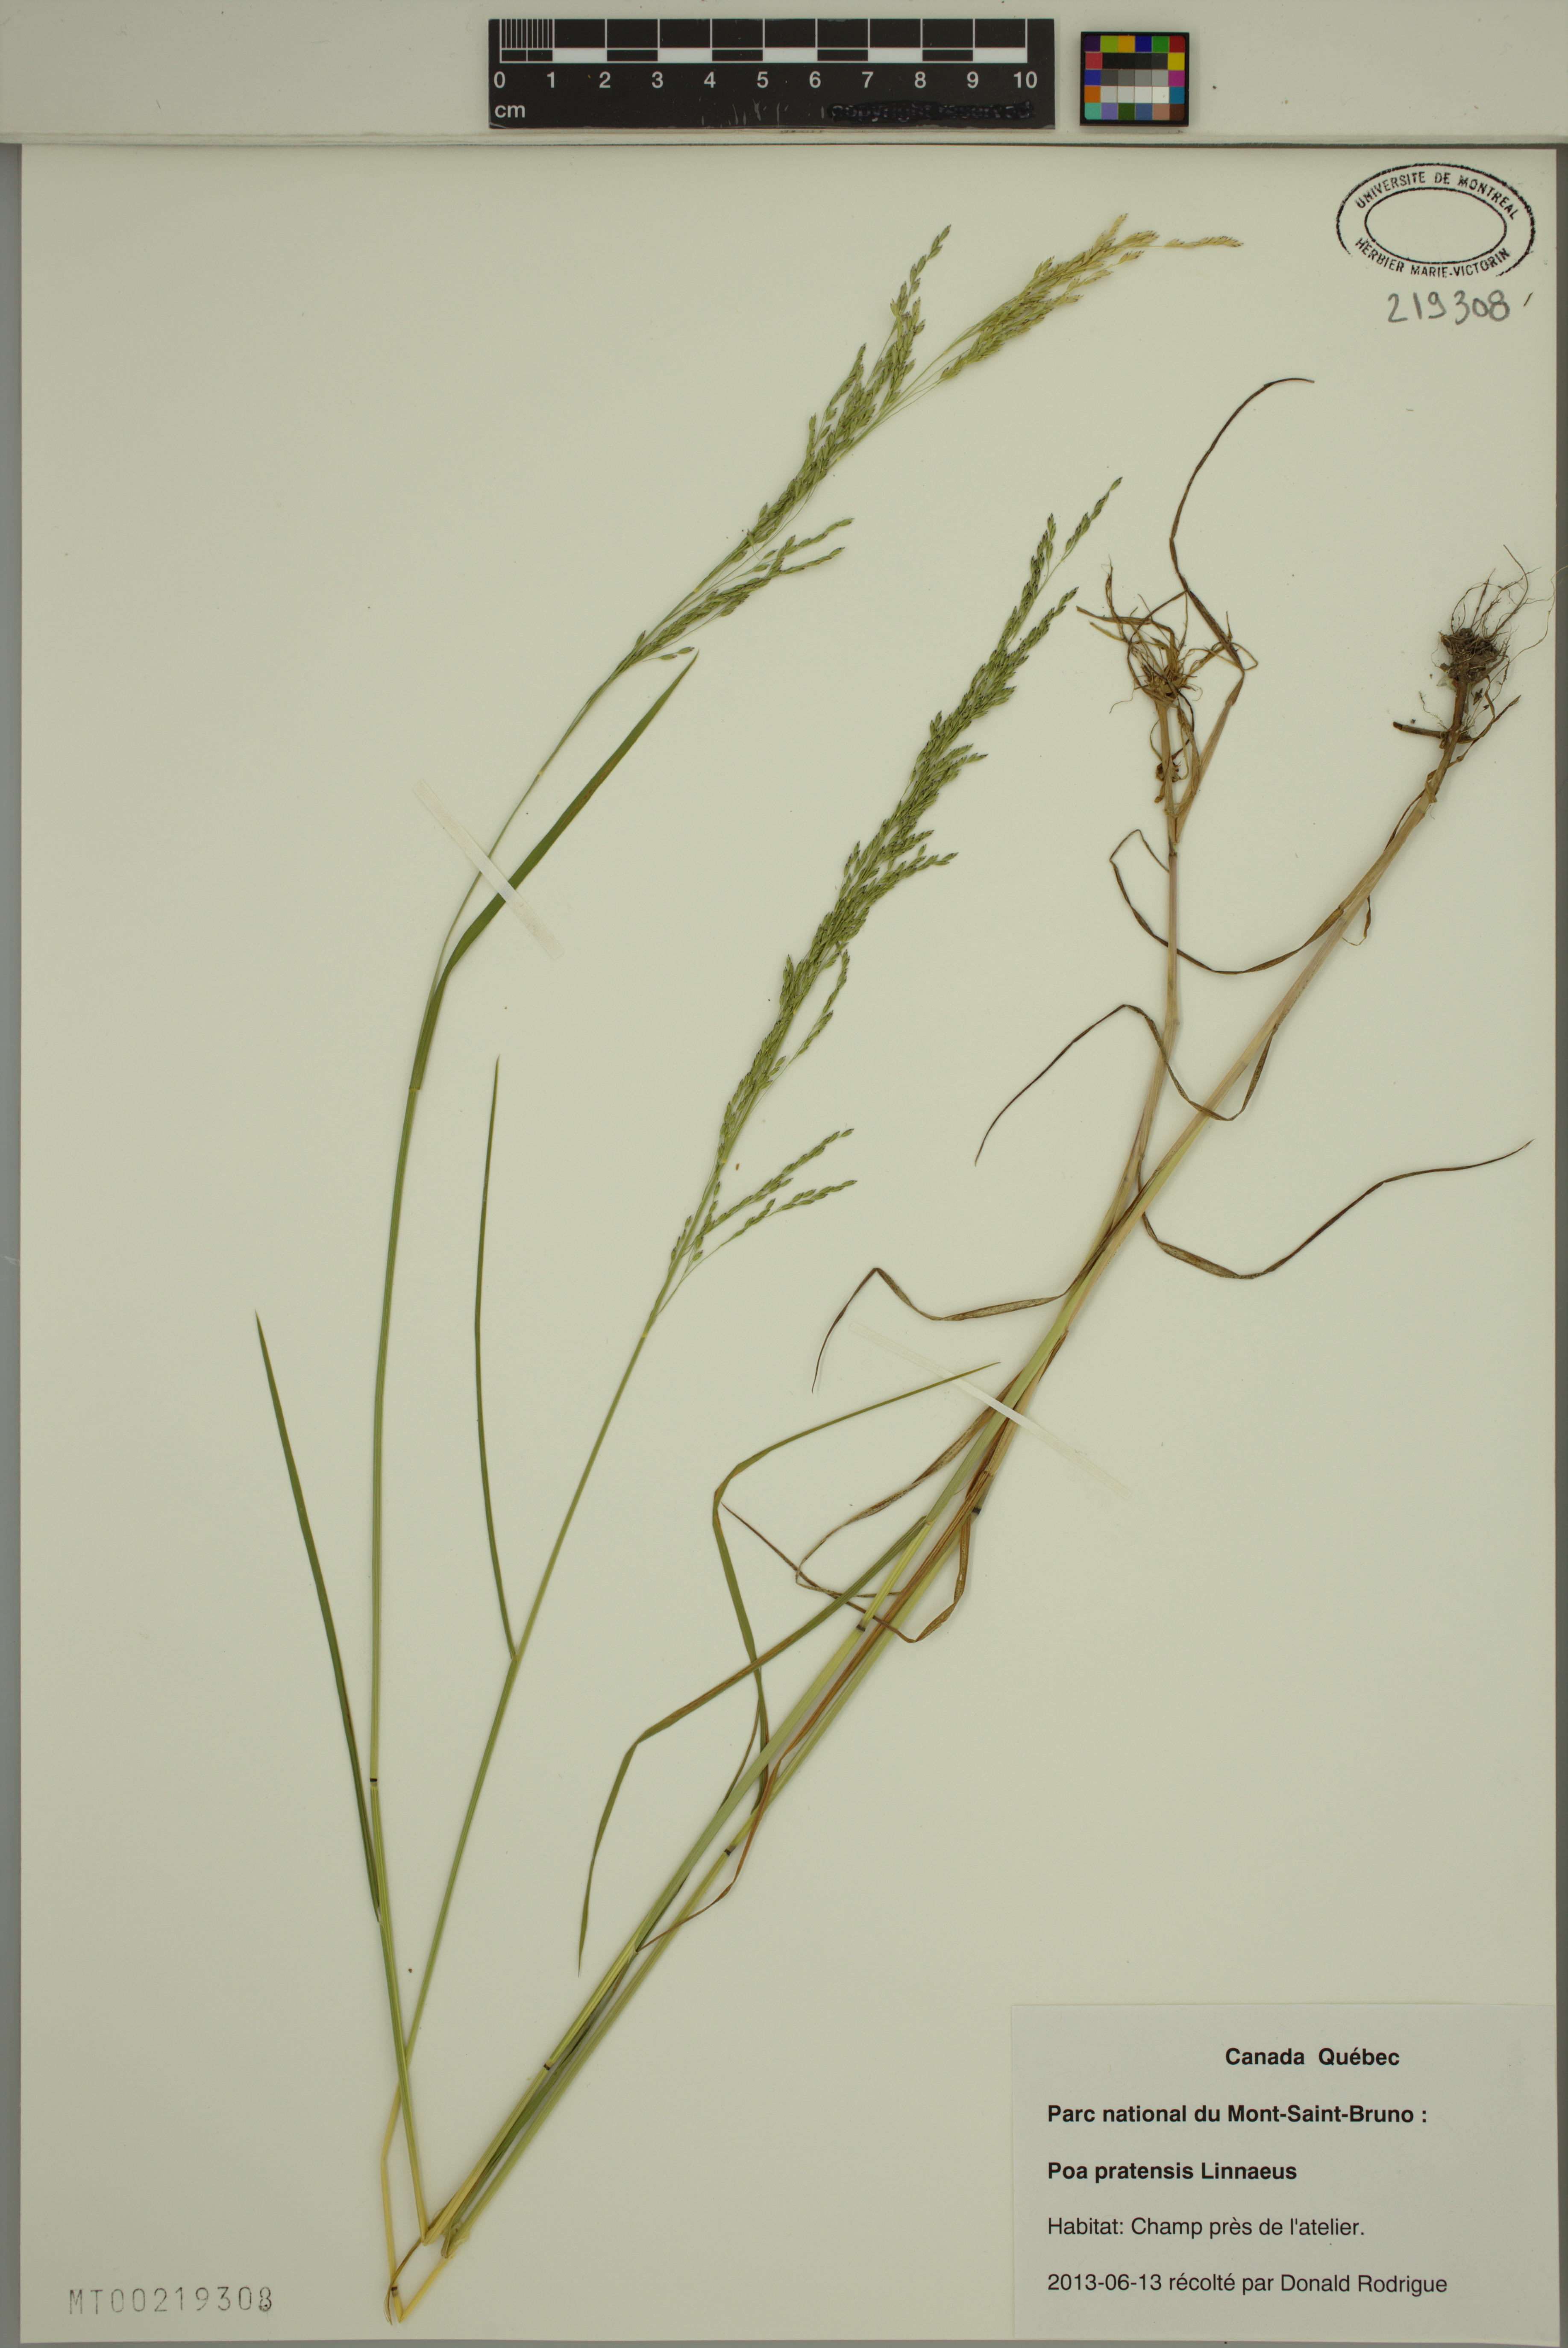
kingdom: Plantae
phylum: Tracheophyta
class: Liliopsida
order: Poales
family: Poaceae
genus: Poa
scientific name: Poa pratensis
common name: Kentucky bluegrass
